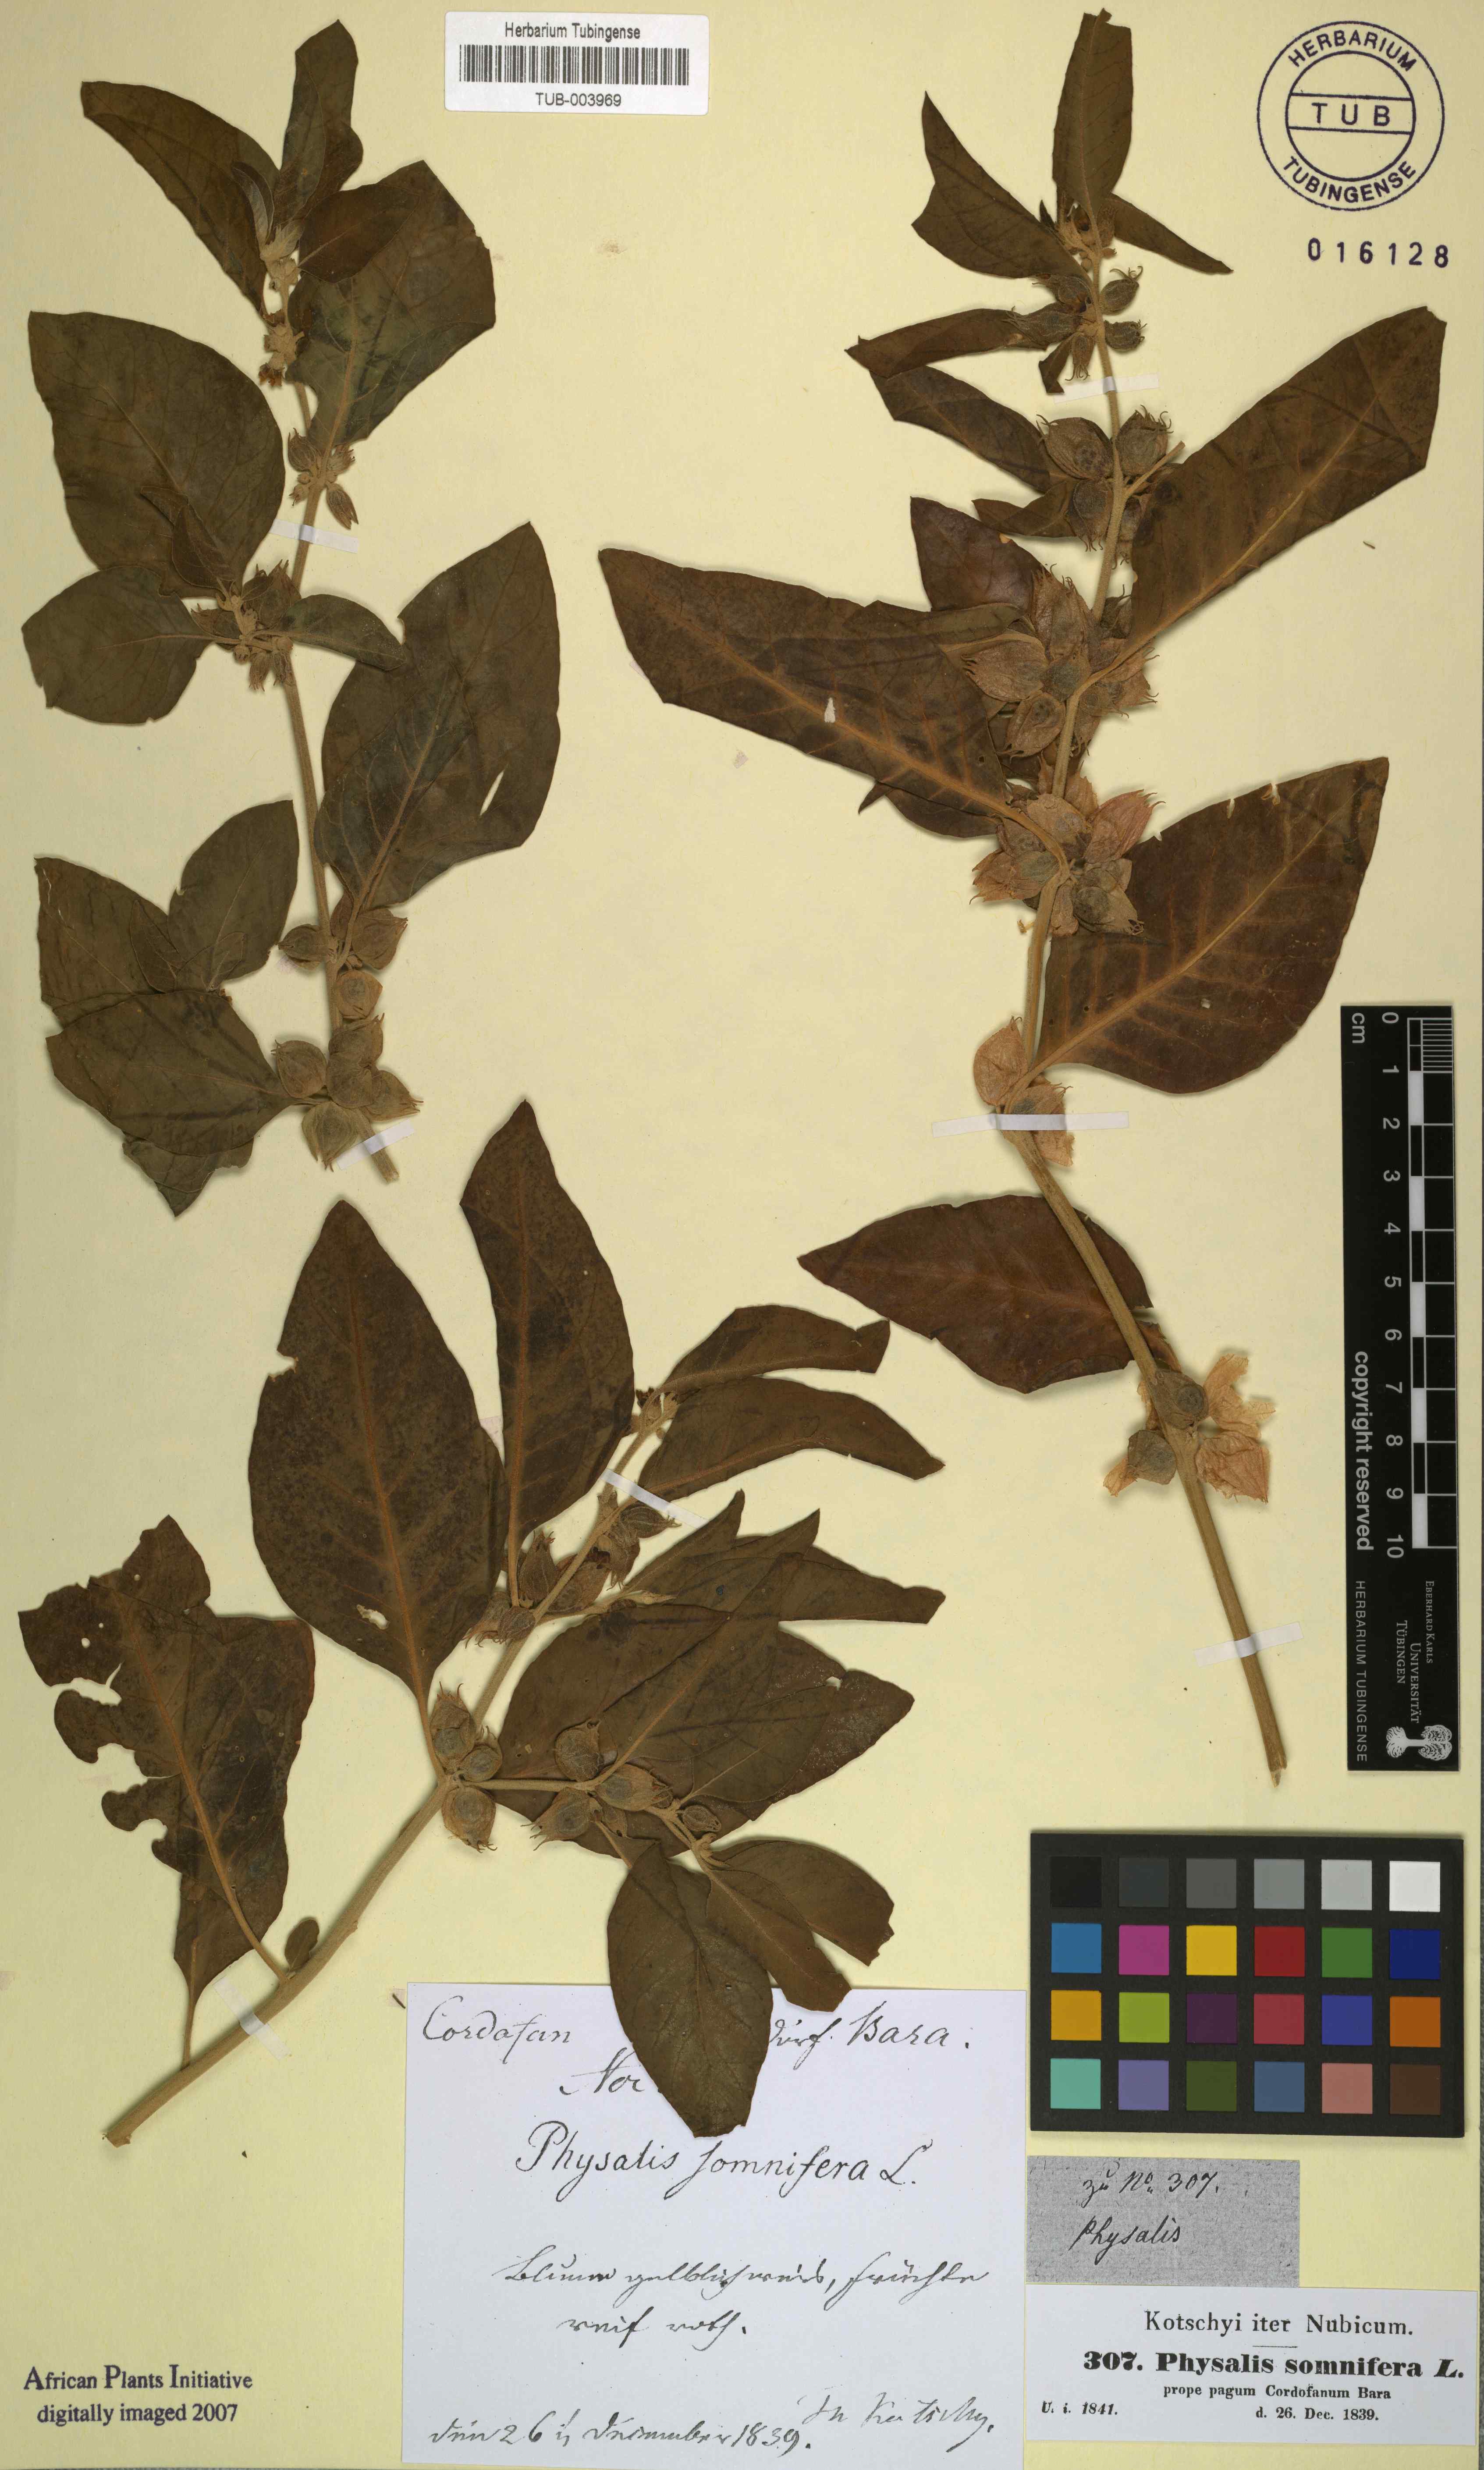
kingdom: Plantae
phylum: Tracheophyta
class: Magnoliopsida
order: Solanales
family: Solanaceae
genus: Withania
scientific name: Withania somnifera
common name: Winter-cherry
